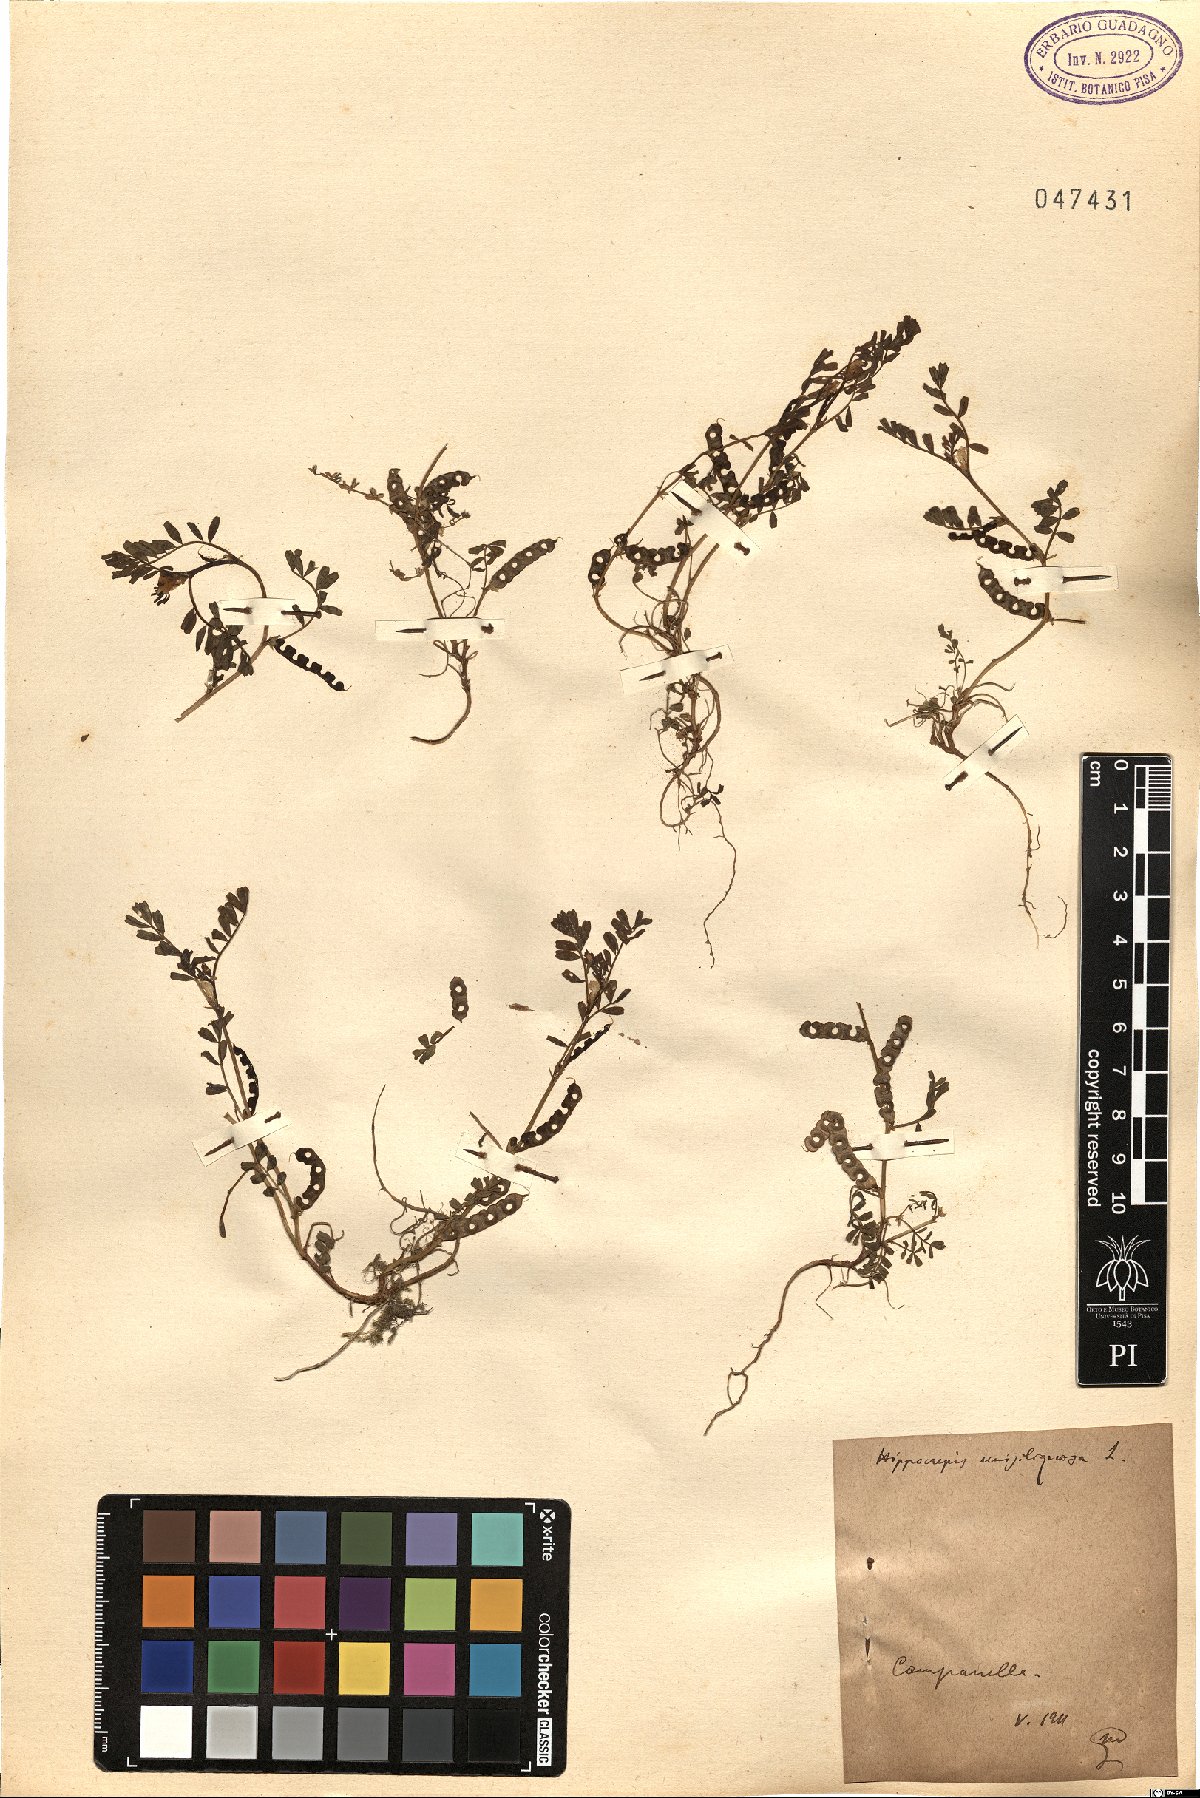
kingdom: Plantae
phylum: Tracheophyta
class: Magnoliopsida
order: Fabales
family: Fabaceae
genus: Hippocrepis
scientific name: Hippocrepis unisiliquosa
